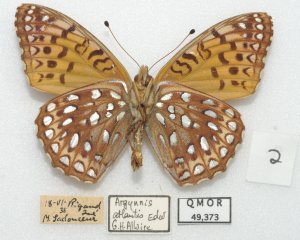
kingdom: Animalia
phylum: Arthropoda
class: Insecta
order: Lepidoptera
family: Nymphalidae
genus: Speyeria
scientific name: Speyeria atlantis
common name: Atlantis Fritillary
